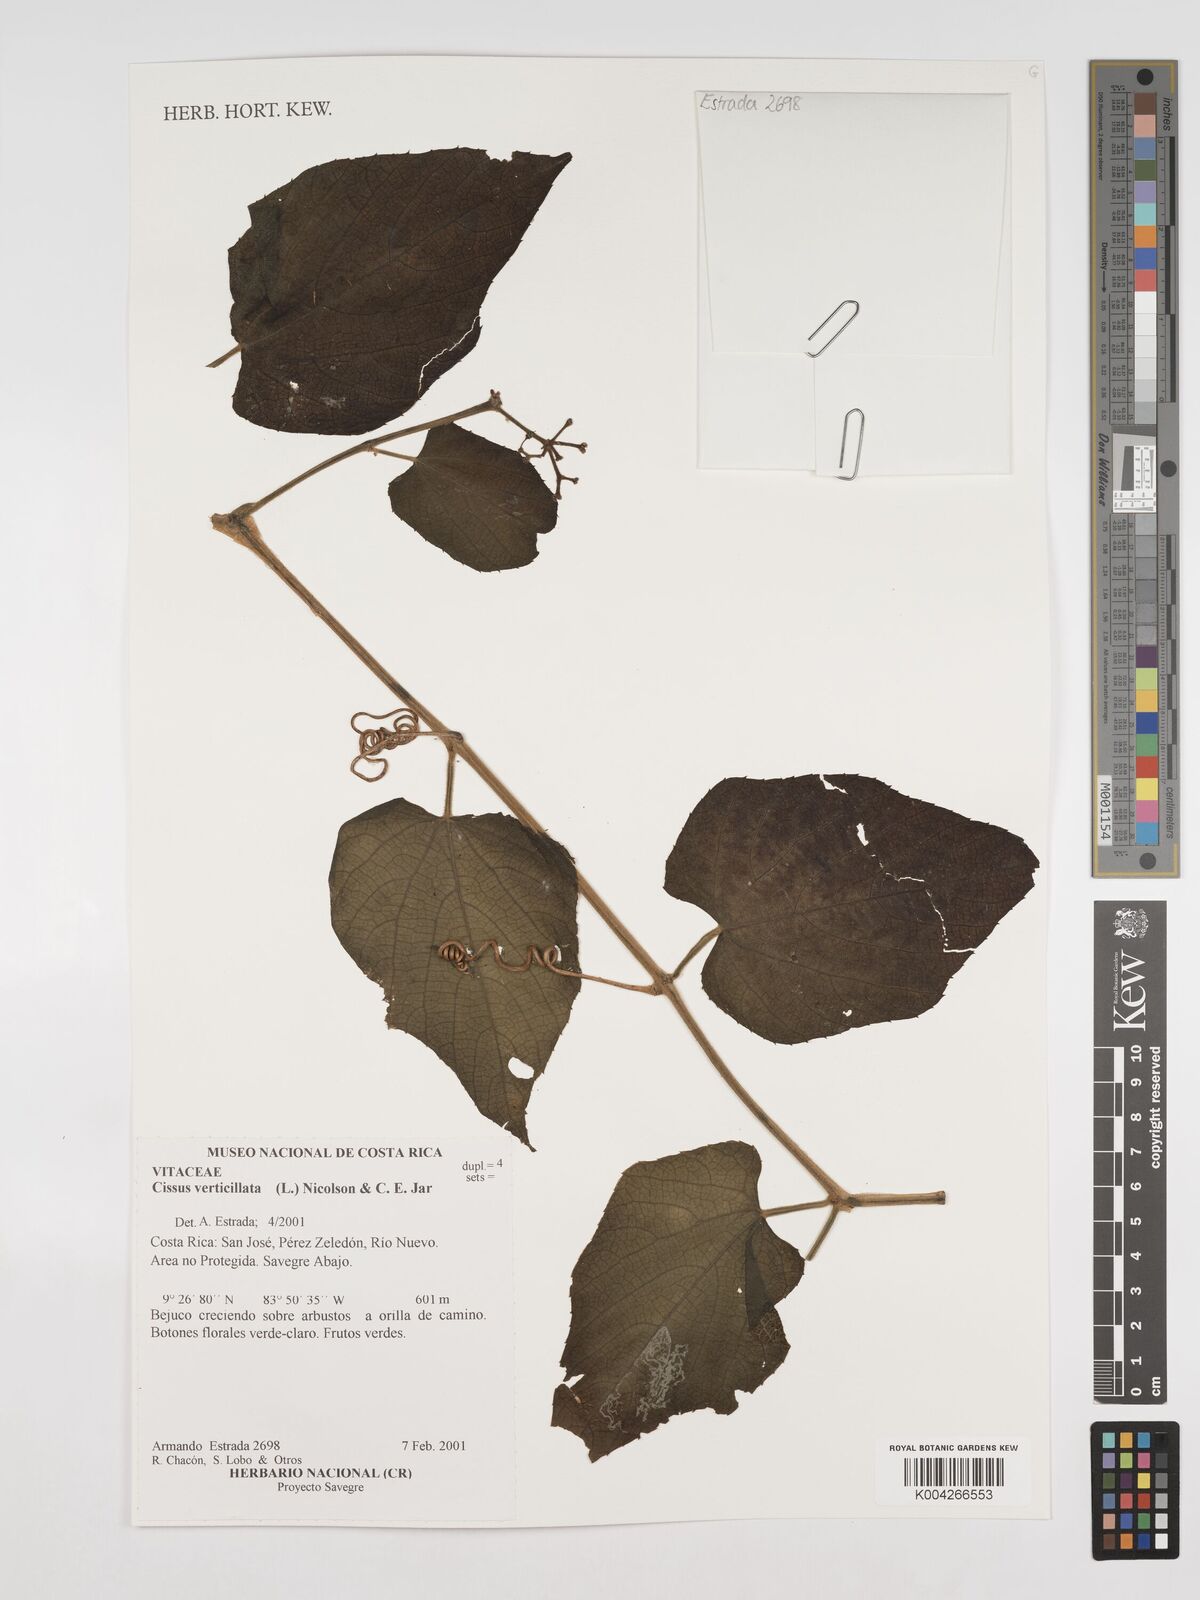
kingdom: Plantae
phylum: Tracheophyta
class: Magnoliopsida
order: Vitales
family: Vitaceae
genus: Cissus
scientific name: Cissus verticillata
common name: Princess vine
